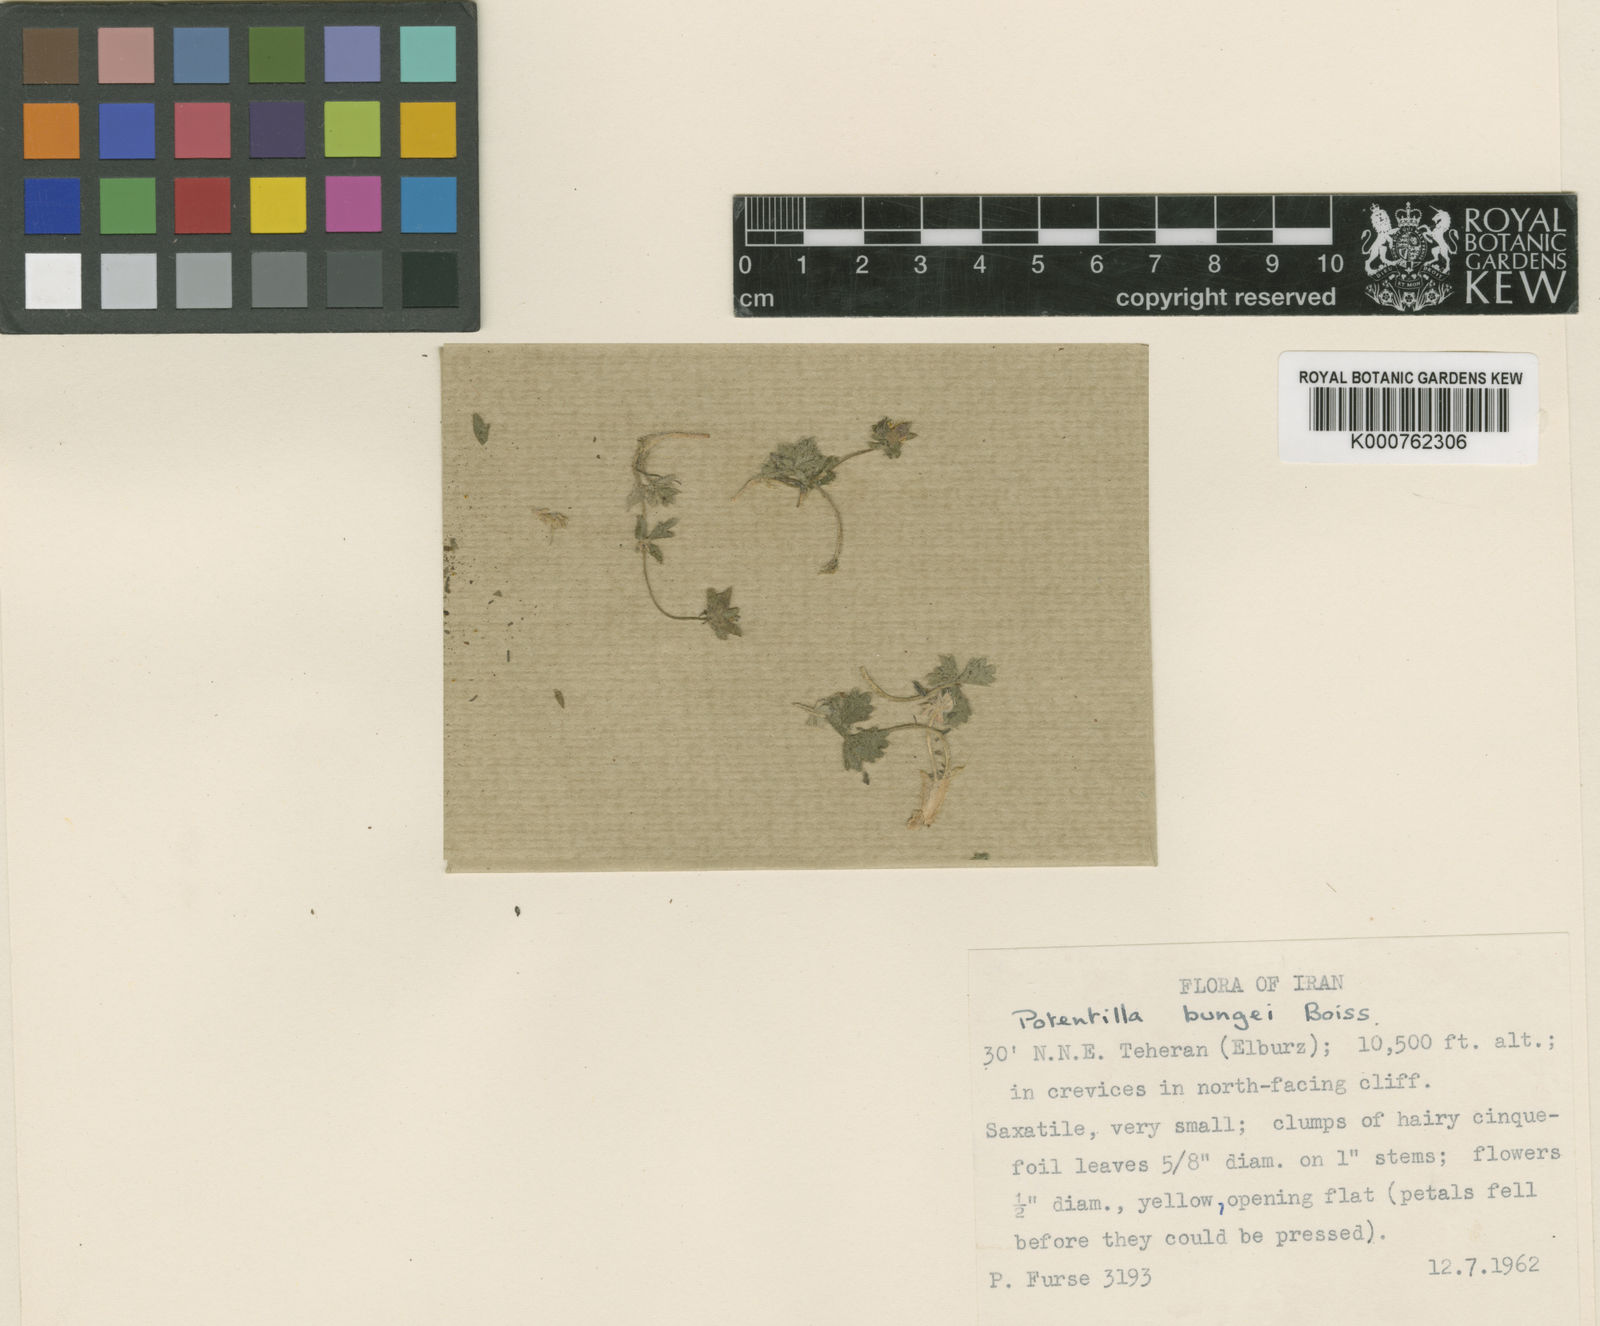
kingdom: Plantae
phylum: Tracheophyta
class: Magnoliopsida
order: Rosales
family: Rosaceae
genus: Potentilla
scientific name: Potentilla bungei
